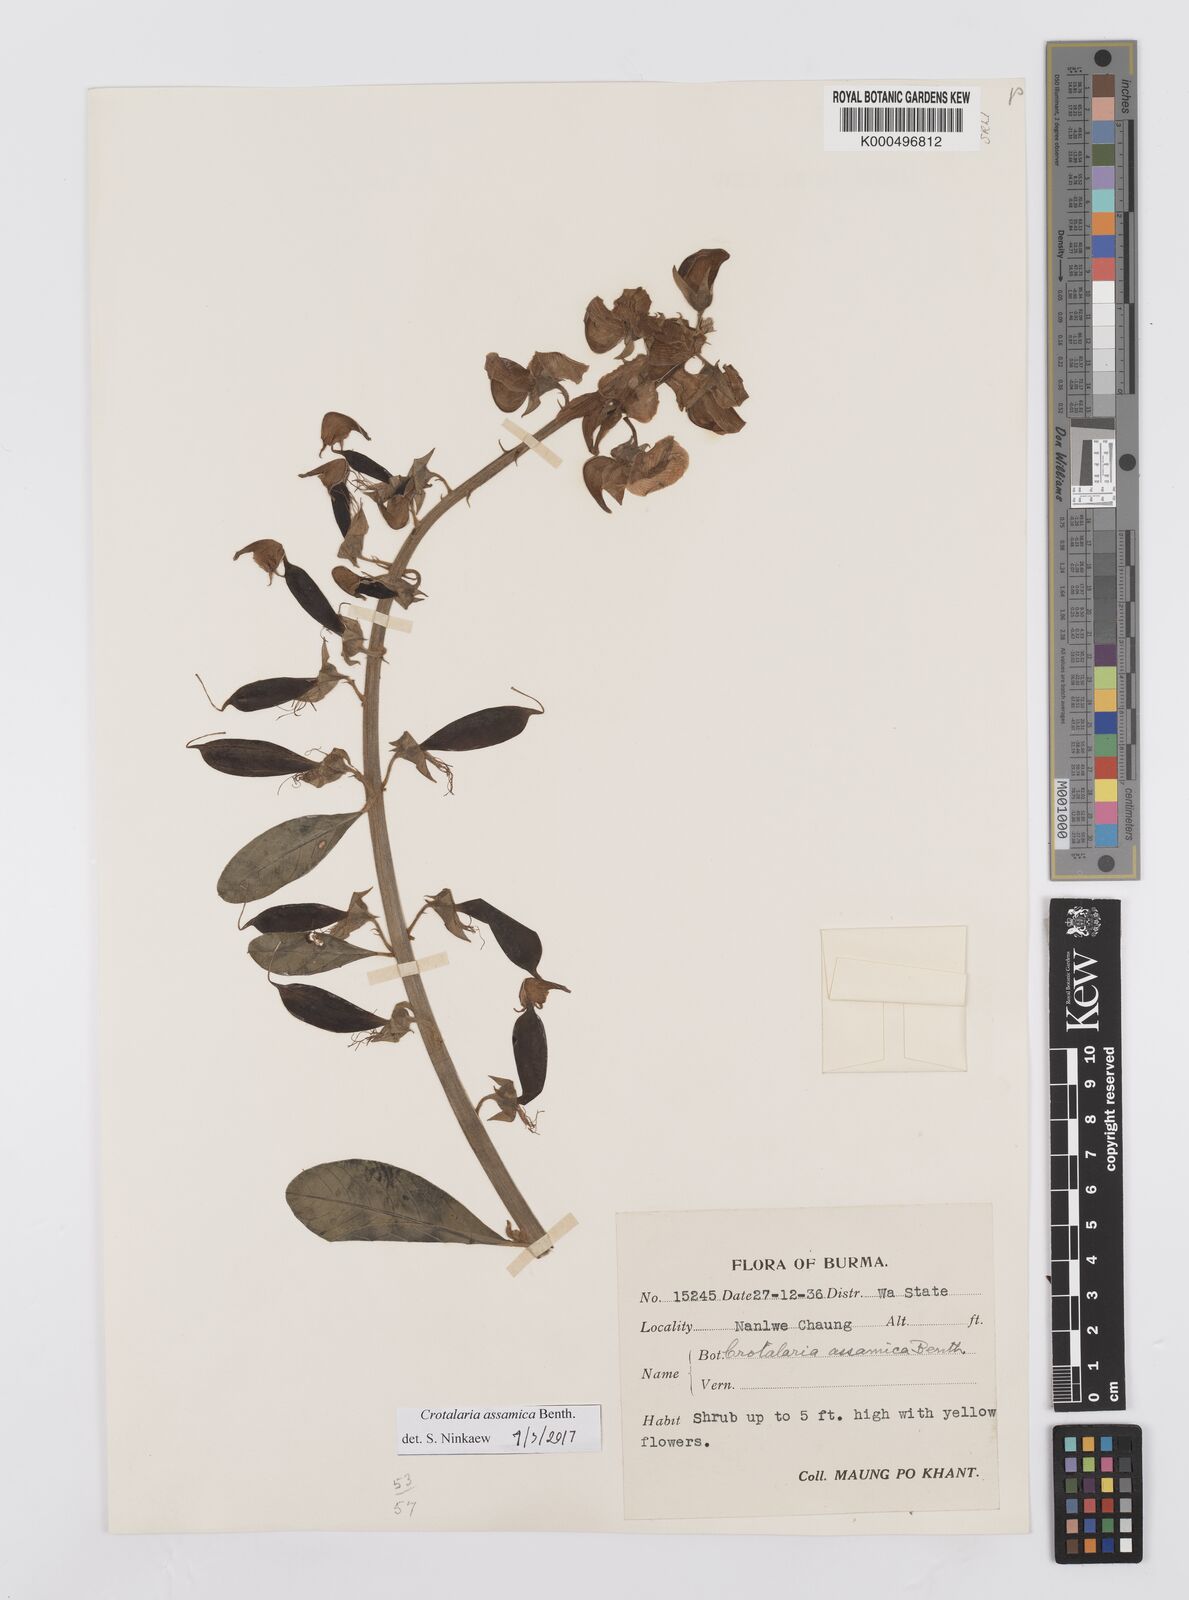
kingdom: Plantae
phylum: Tracheophyta
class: Magnoliopsida
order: Fabales
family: Fabaceae
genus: Crotalaria
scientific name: Crotalaria sericea
